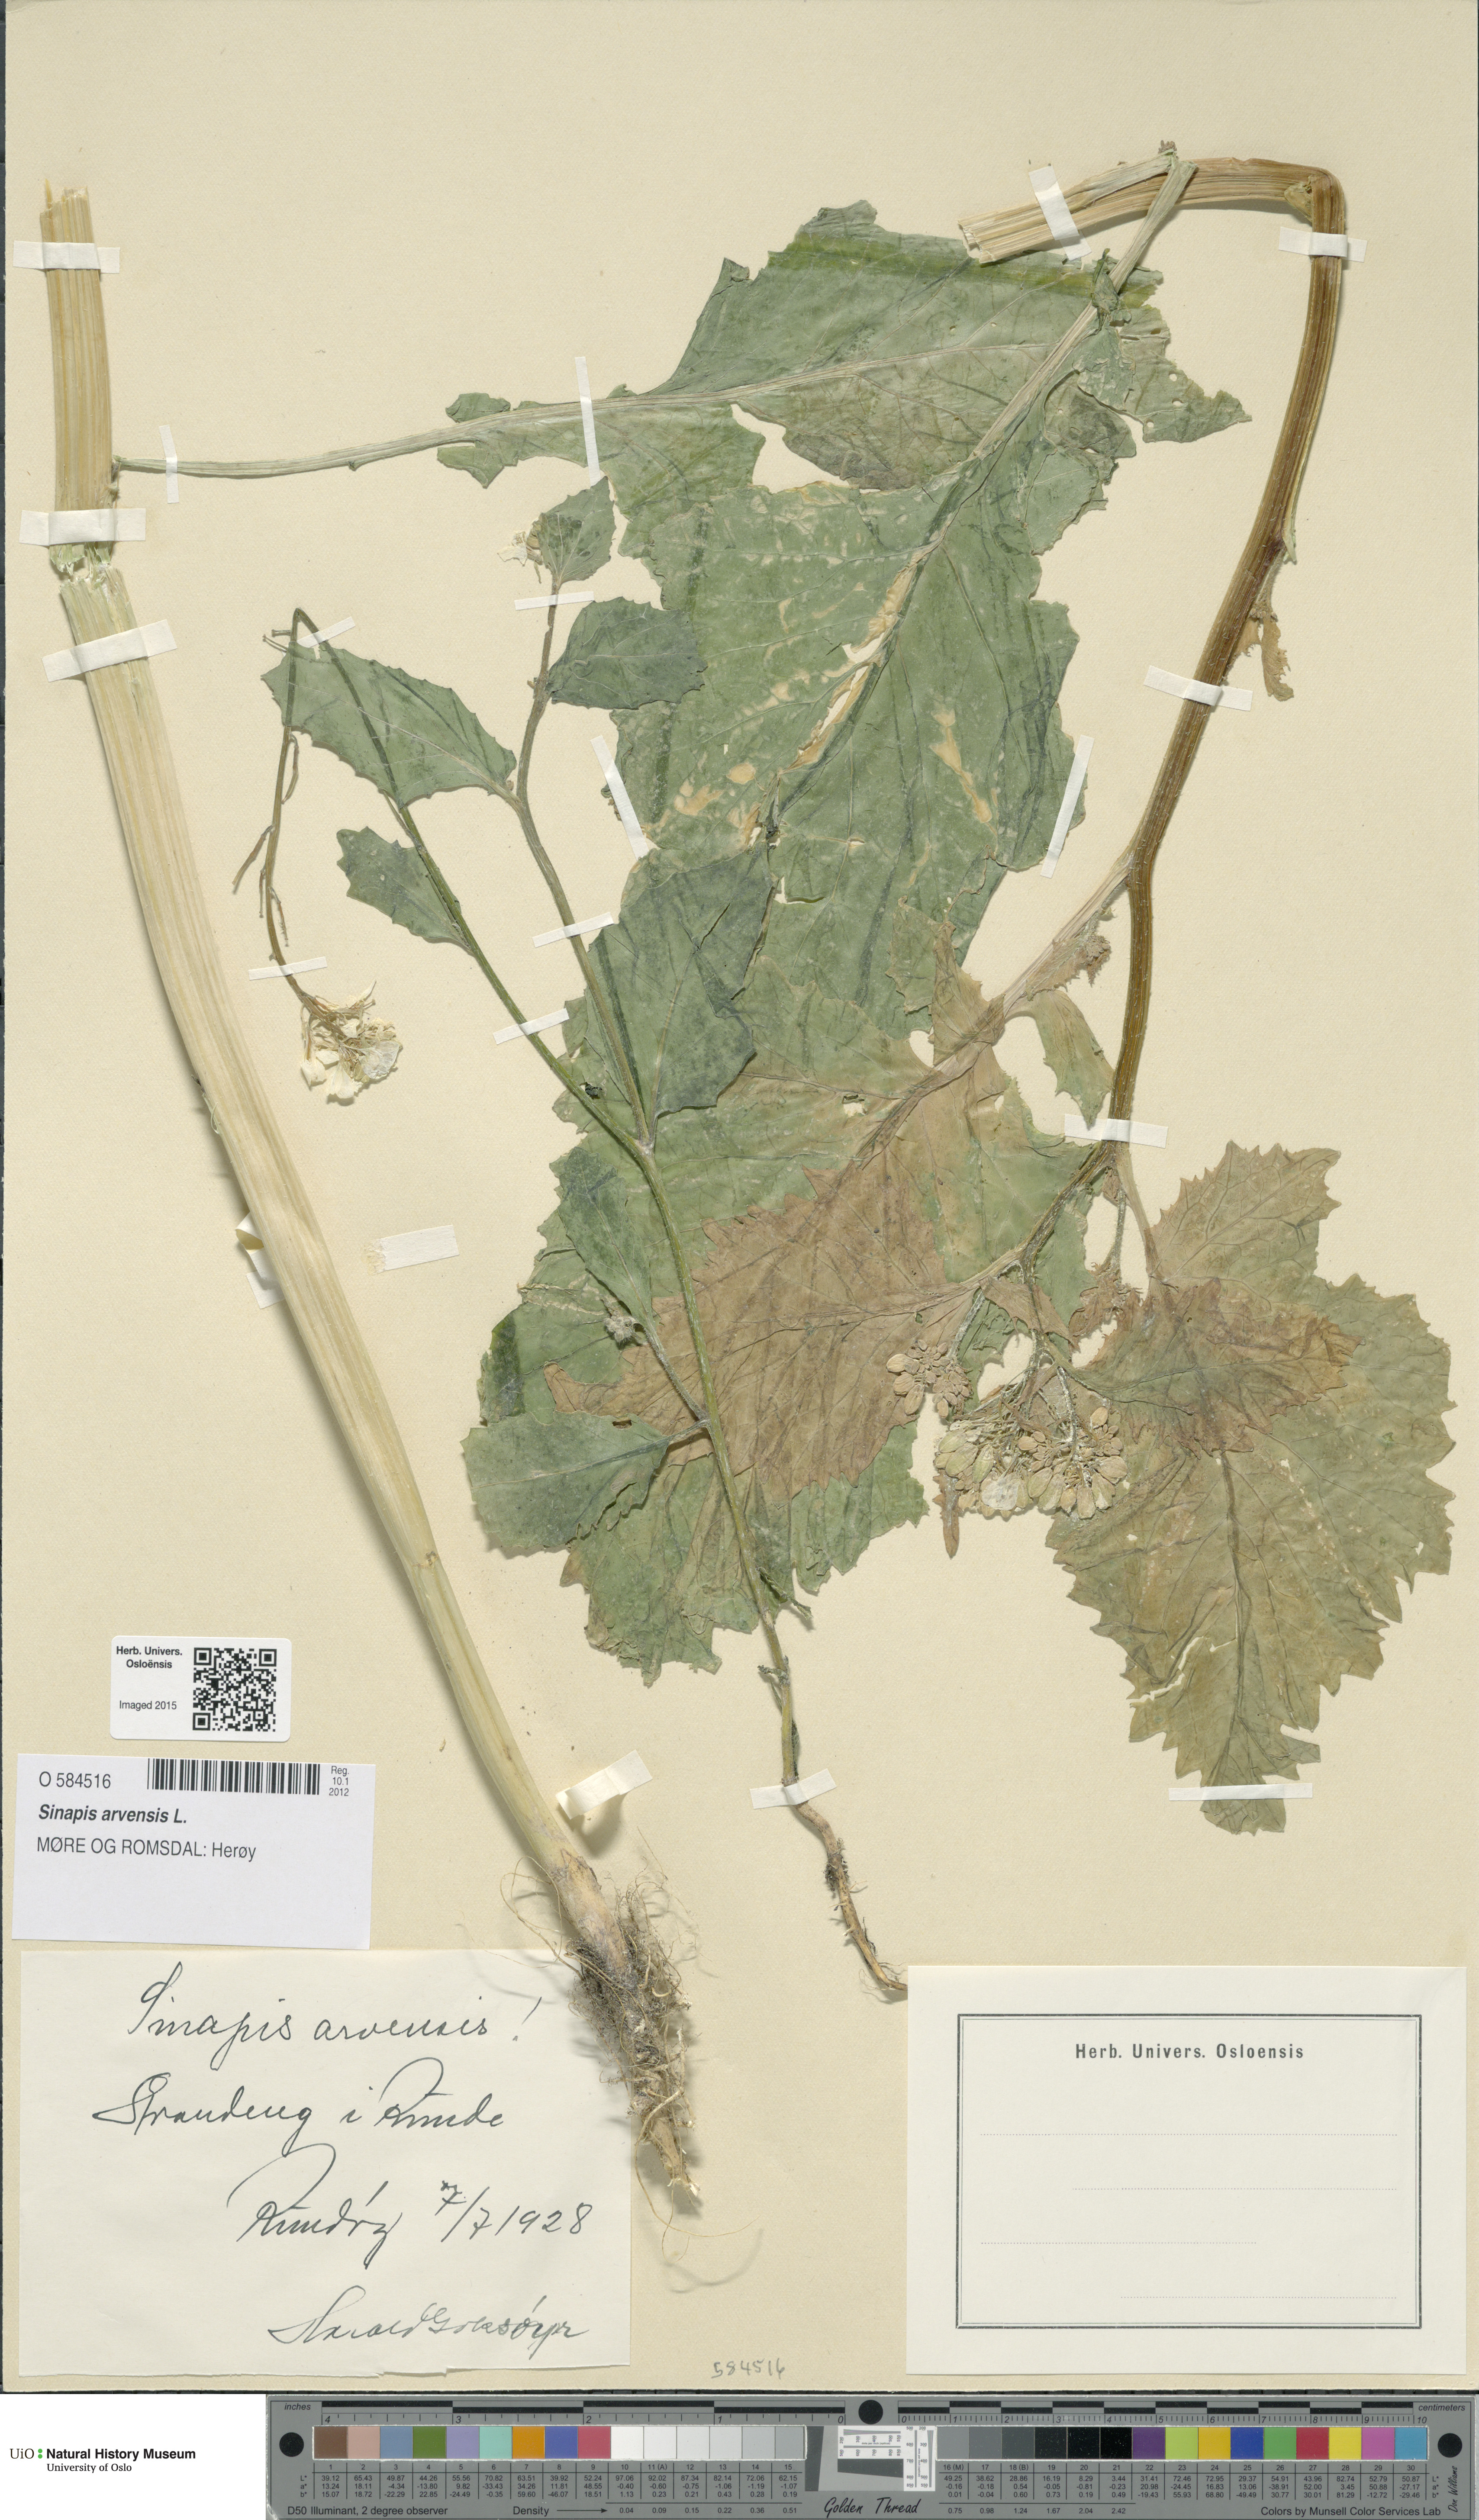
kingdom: Plantae
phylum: Tracheophyta
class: Magnoliopsida
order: Brassicales
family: Brassicaceae
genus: Sinapis
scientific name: Sinapis arvensis
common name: Charlock
